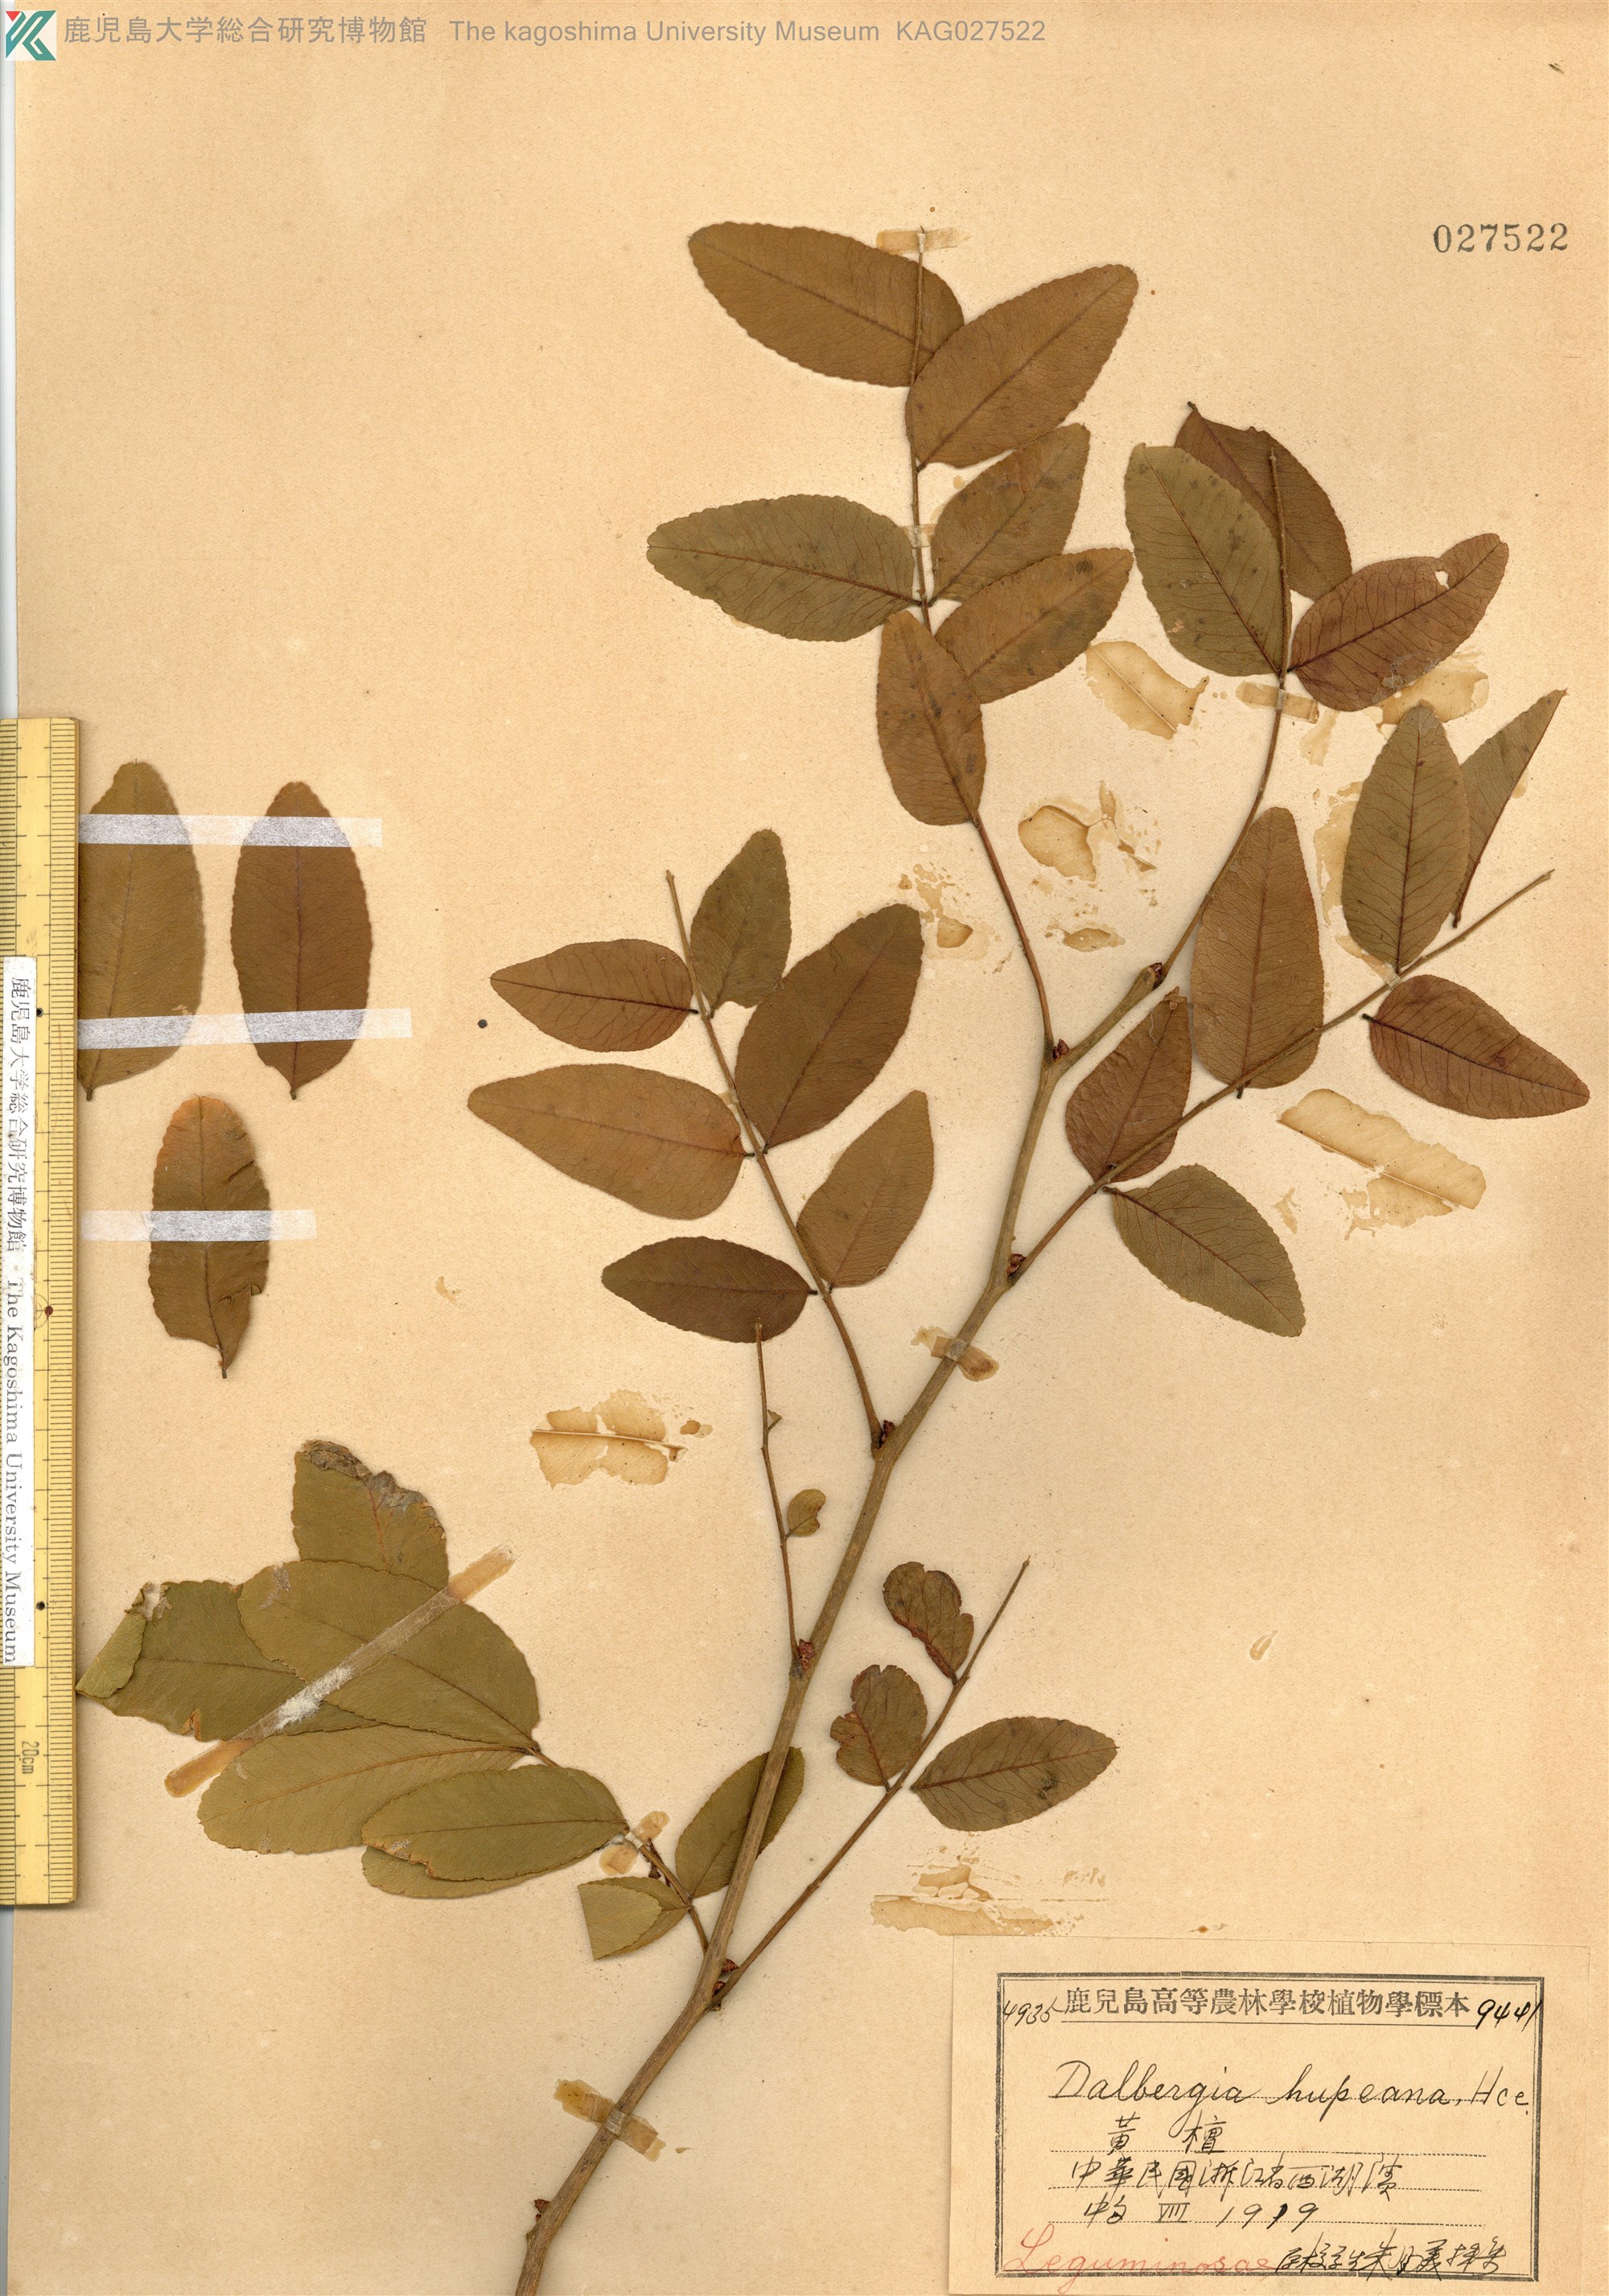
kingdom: Plantae
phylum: Tracheophyta
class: Magnoliopsida
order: Fabales
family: Fabaceae
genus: Dalbergia
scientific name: Dalbergia hupeana
